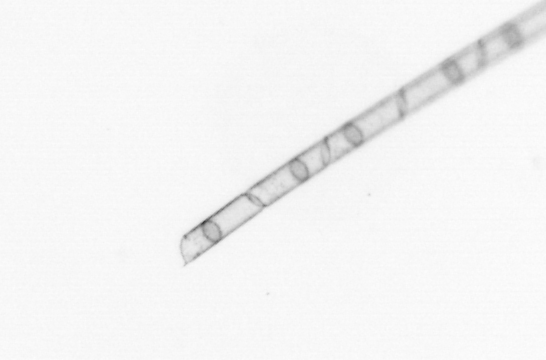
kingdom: Chromista
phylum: Ochrophyta
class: Bacillariophyceae
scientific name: Bacillariophyceae
